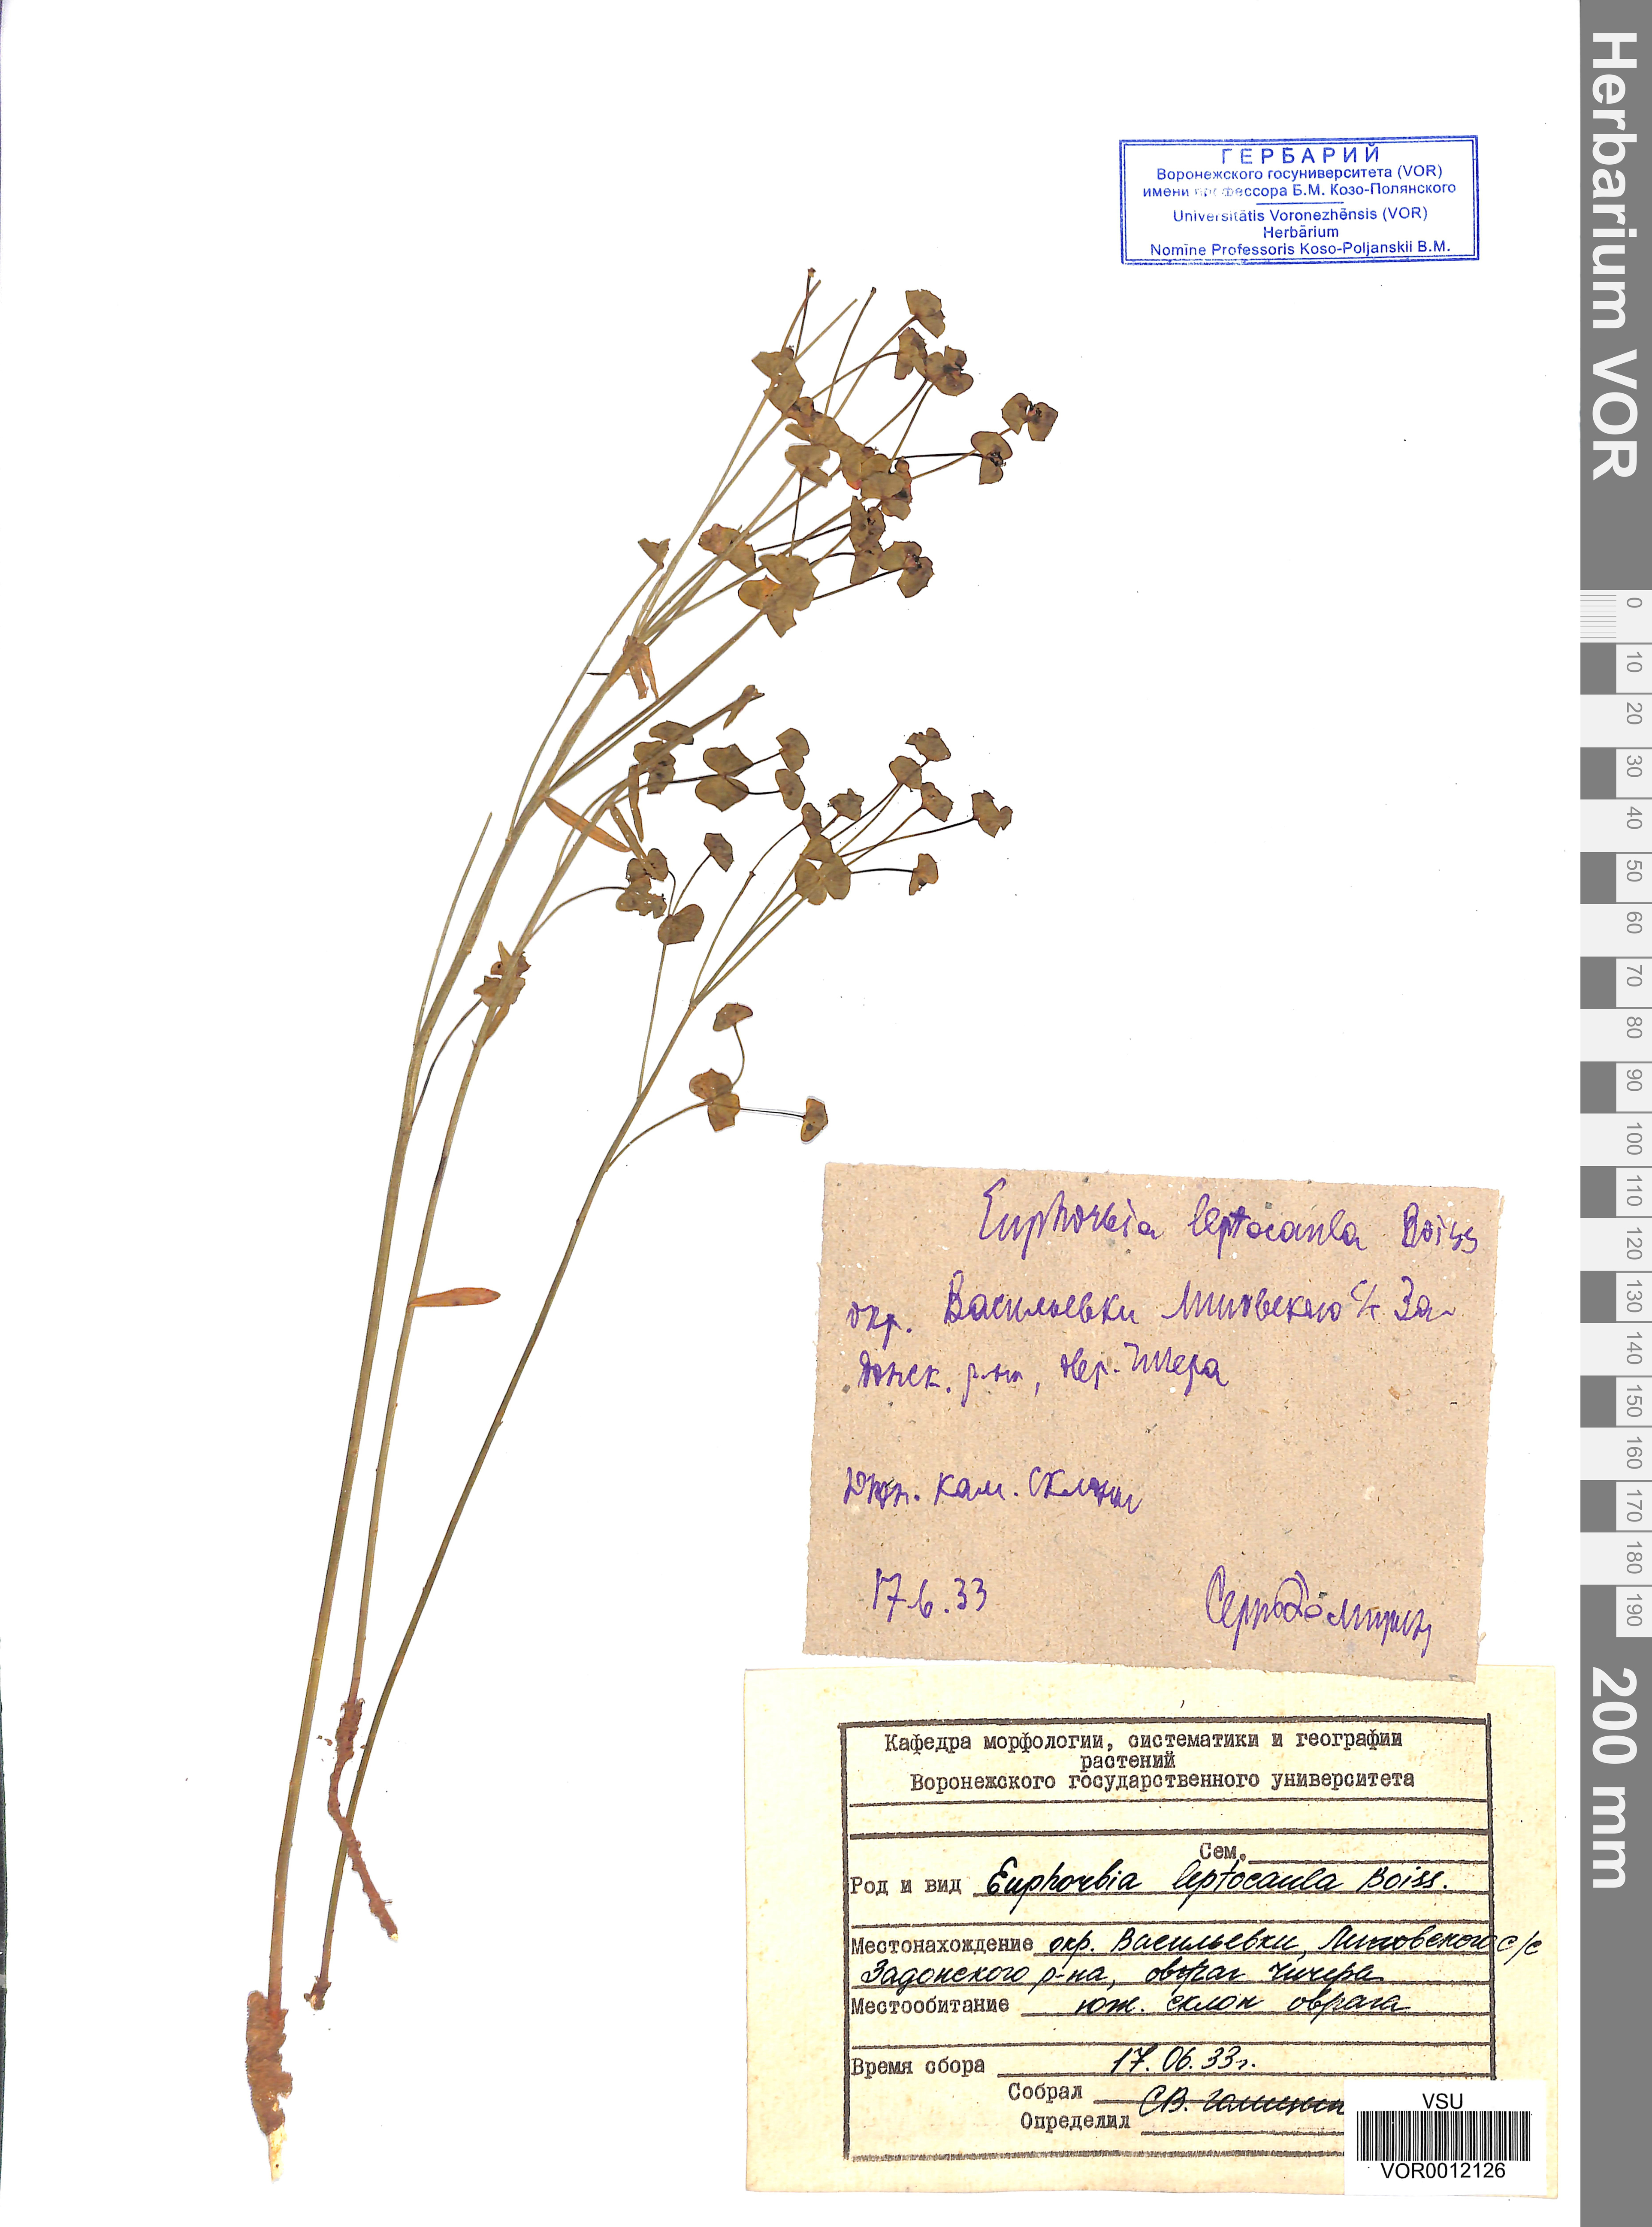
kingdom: Plantae
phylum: Tracheophyta
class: Magnoliopsida
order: Malpighiales
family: Euphorbiaceae
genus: Euphorbia
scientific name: Euphorbia leptocaula
